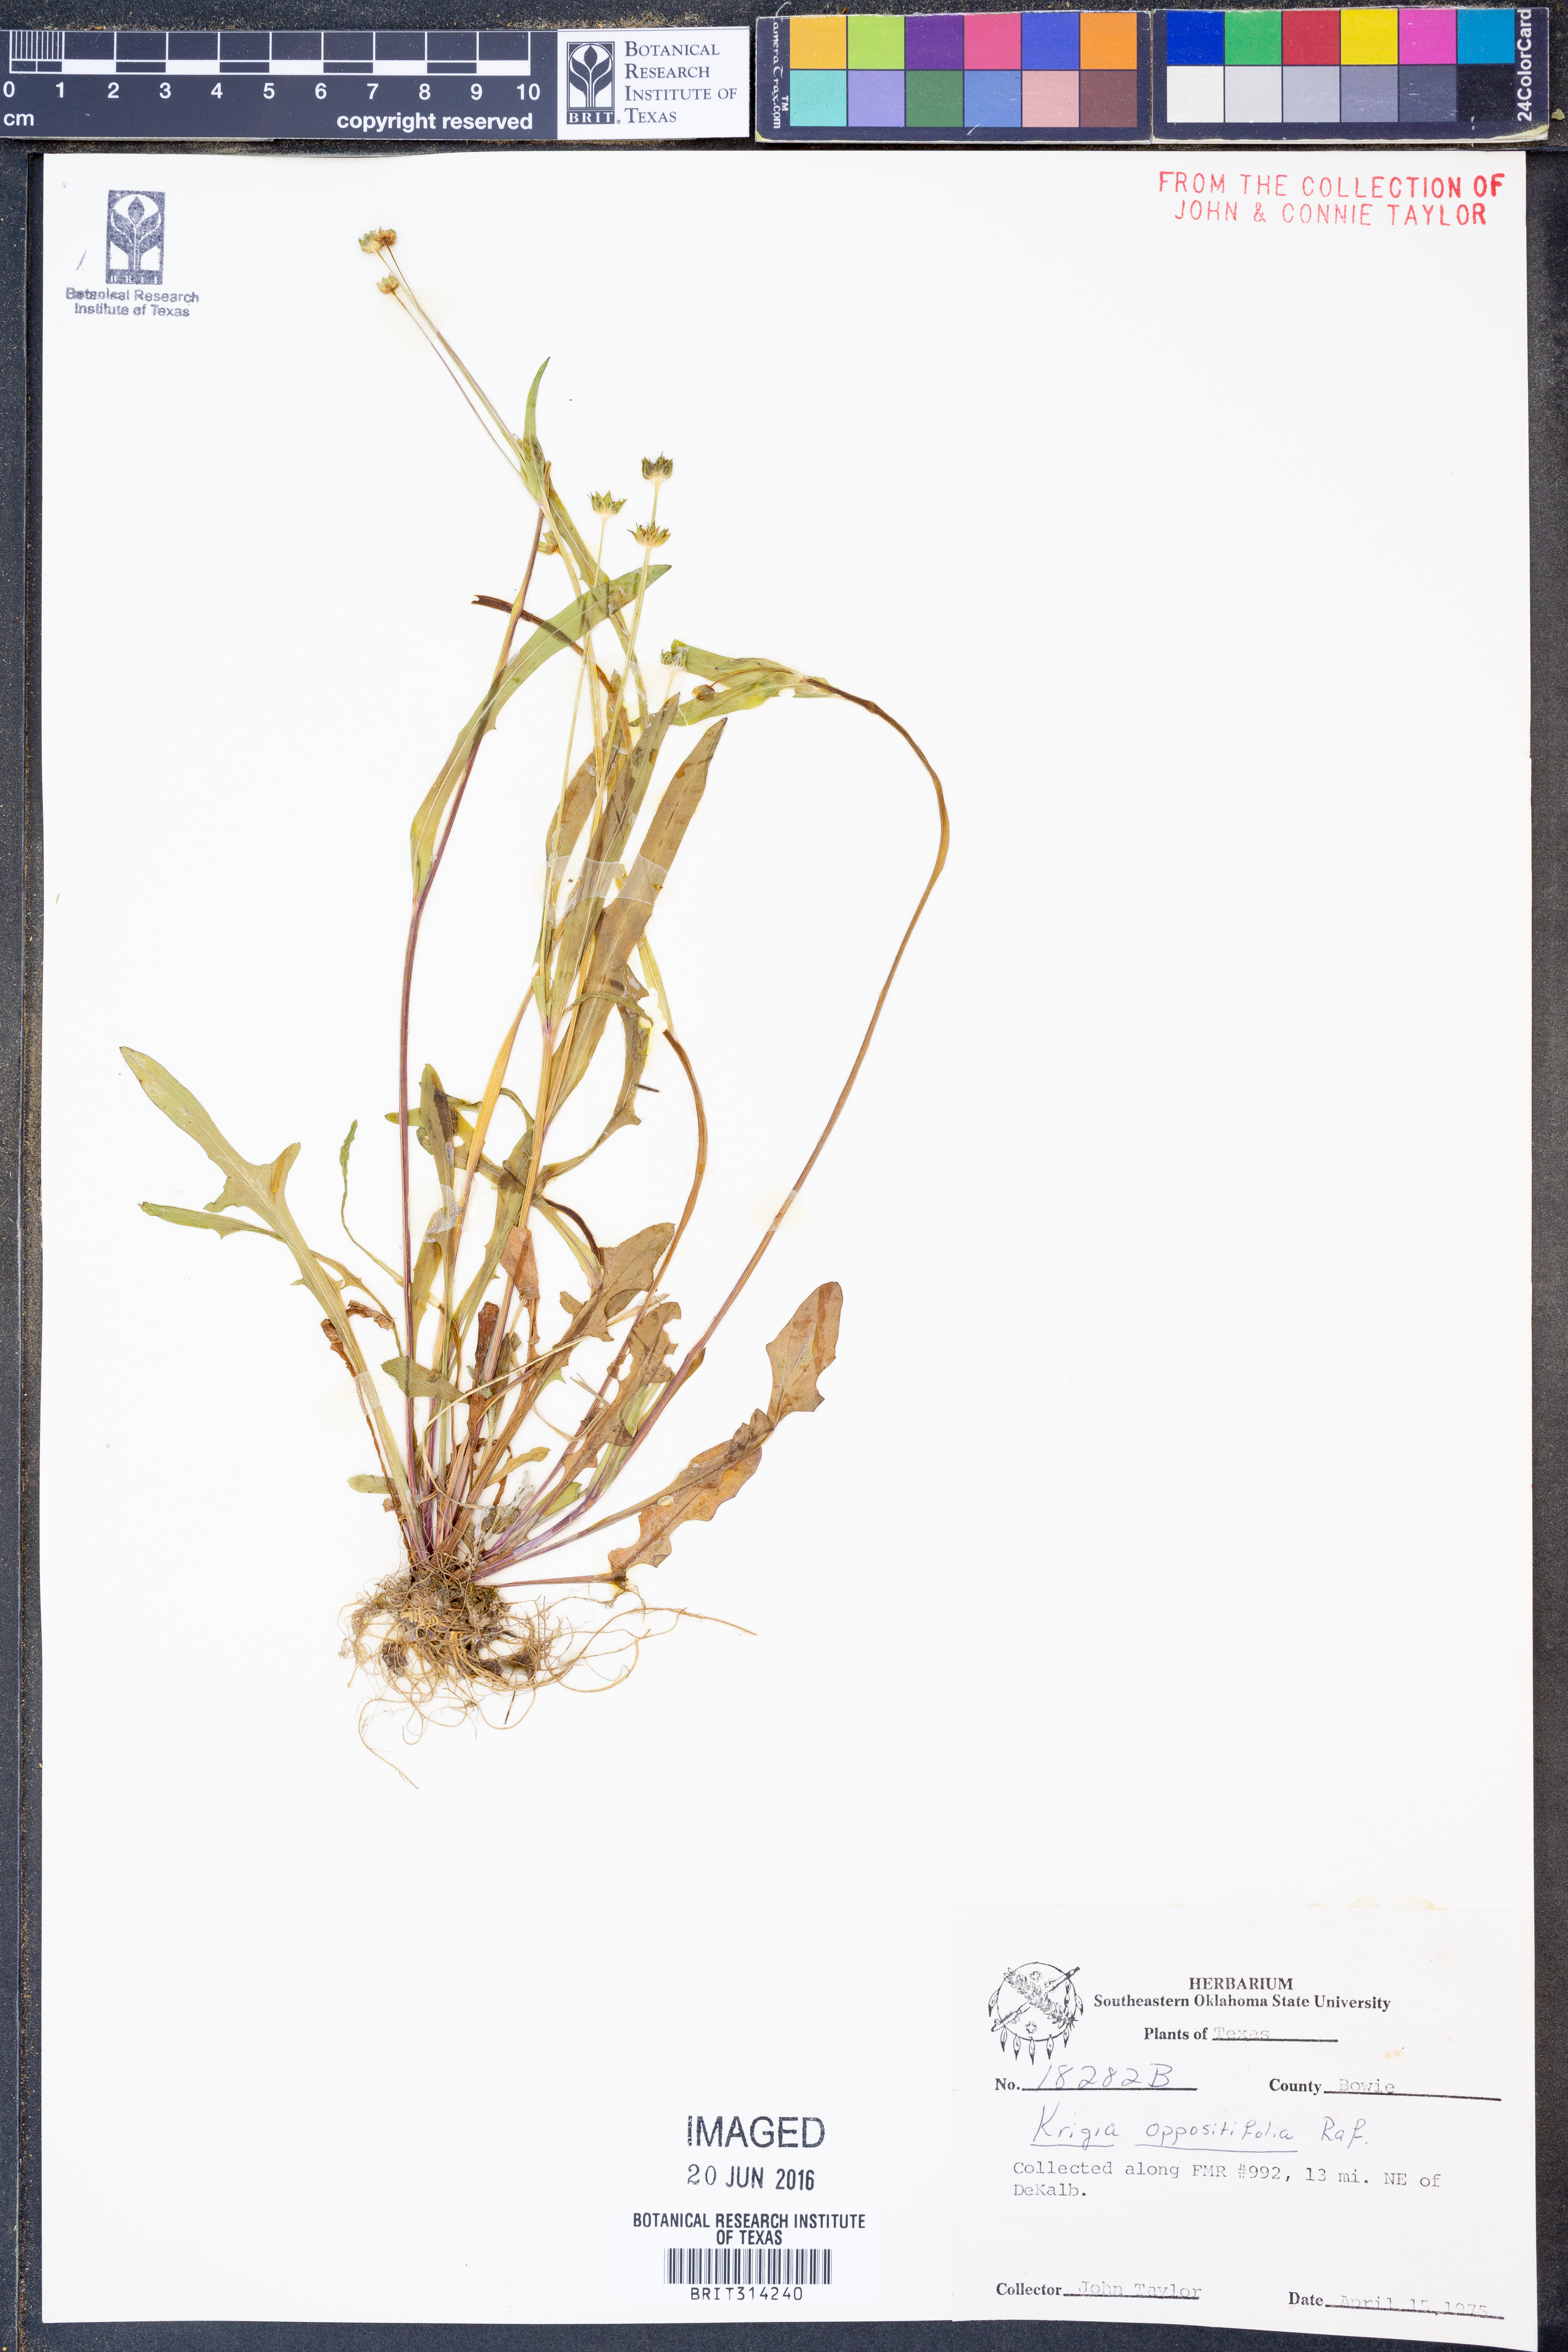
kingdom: Plantae
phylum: Tracheophyta
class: Magnoliopsida
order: Asterales
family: Asteraceae
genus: Krigia
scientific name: Krigia cespitosa
